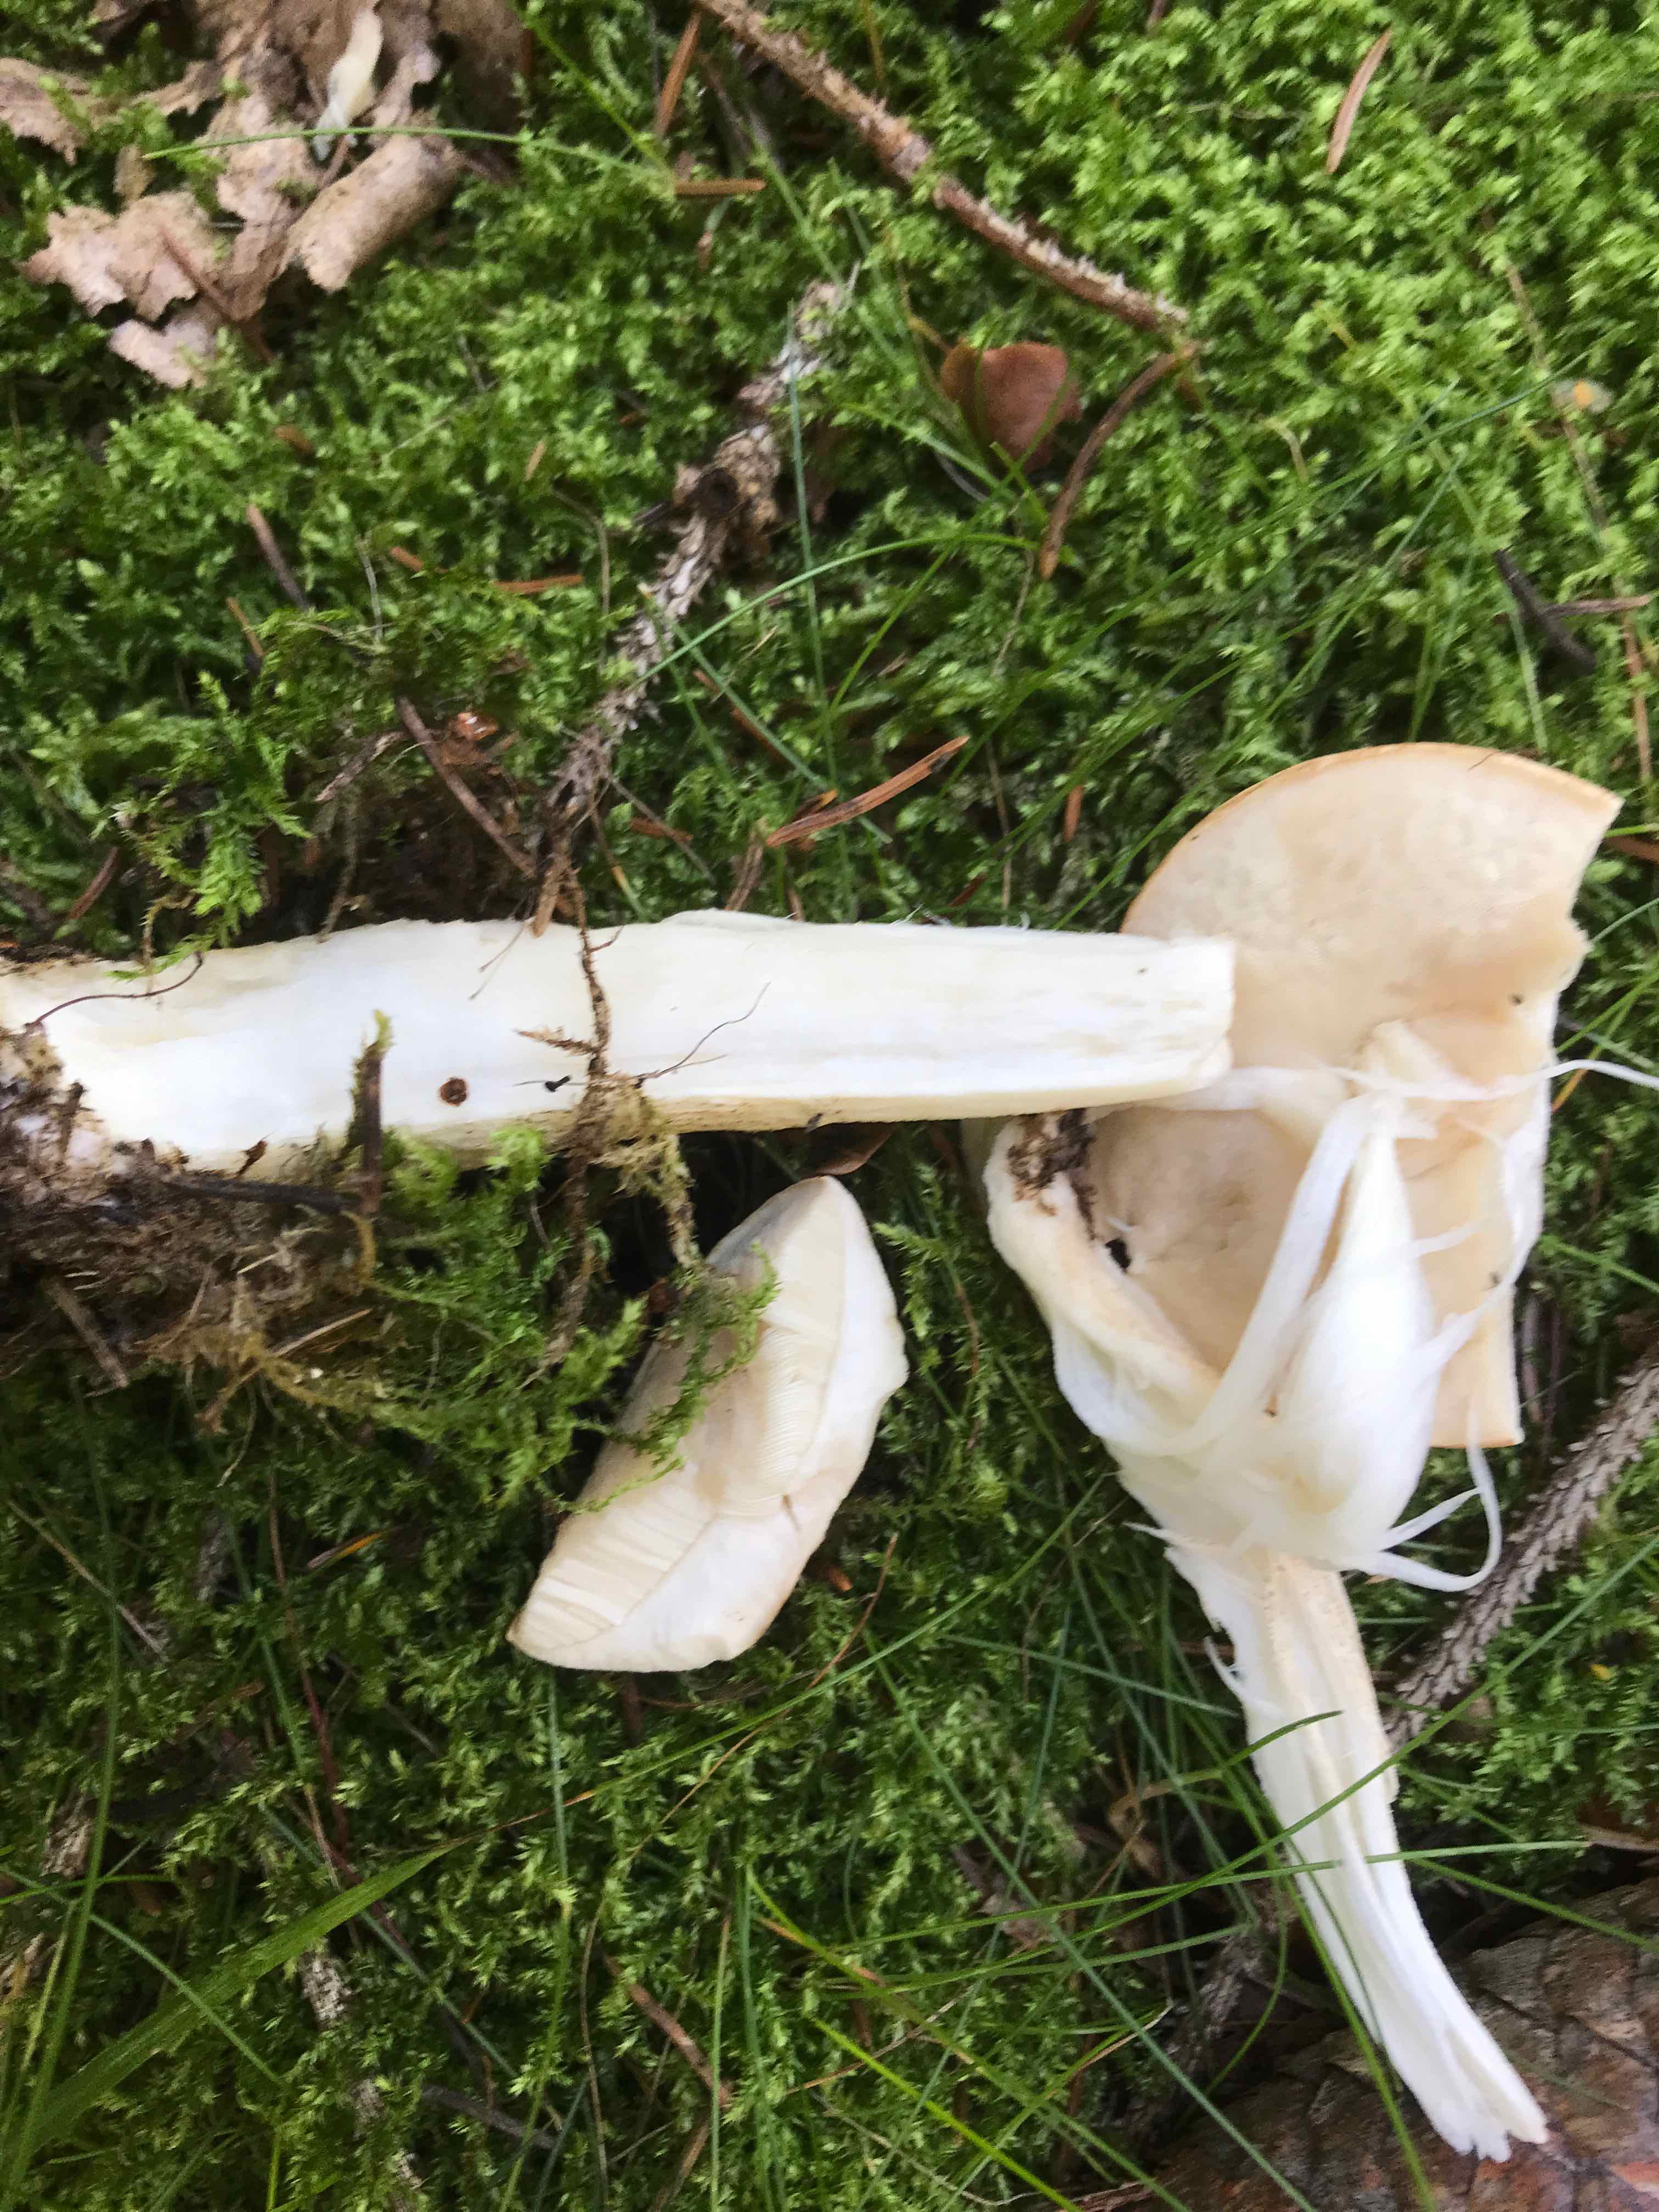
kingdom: Fungi
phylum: Basidiomycota
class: Agaricomycetes
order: Boletales
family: Boletaceae
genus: Leccinum
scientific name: Leccinum
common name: skælrørhat
